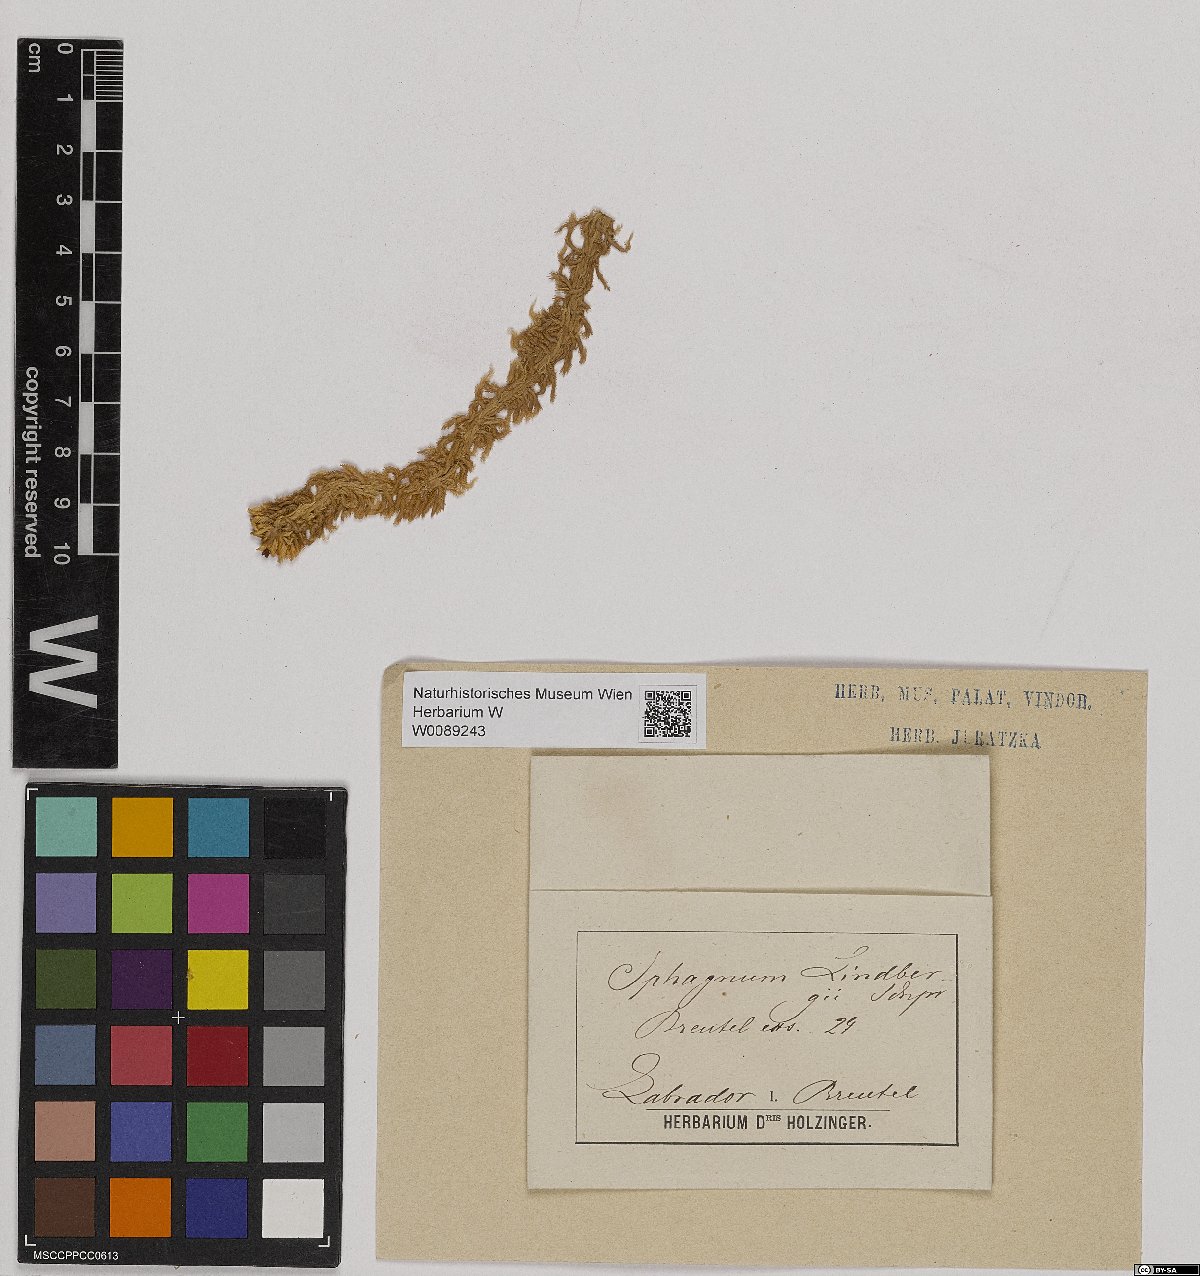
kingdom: Plantae
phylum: Bryophyta
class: Sphagnopsida
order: Sphagnales
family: Sphagnaceae
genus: Sphagnum
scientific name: Sphagnum lindbergii
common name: Lindberg's peat moss
